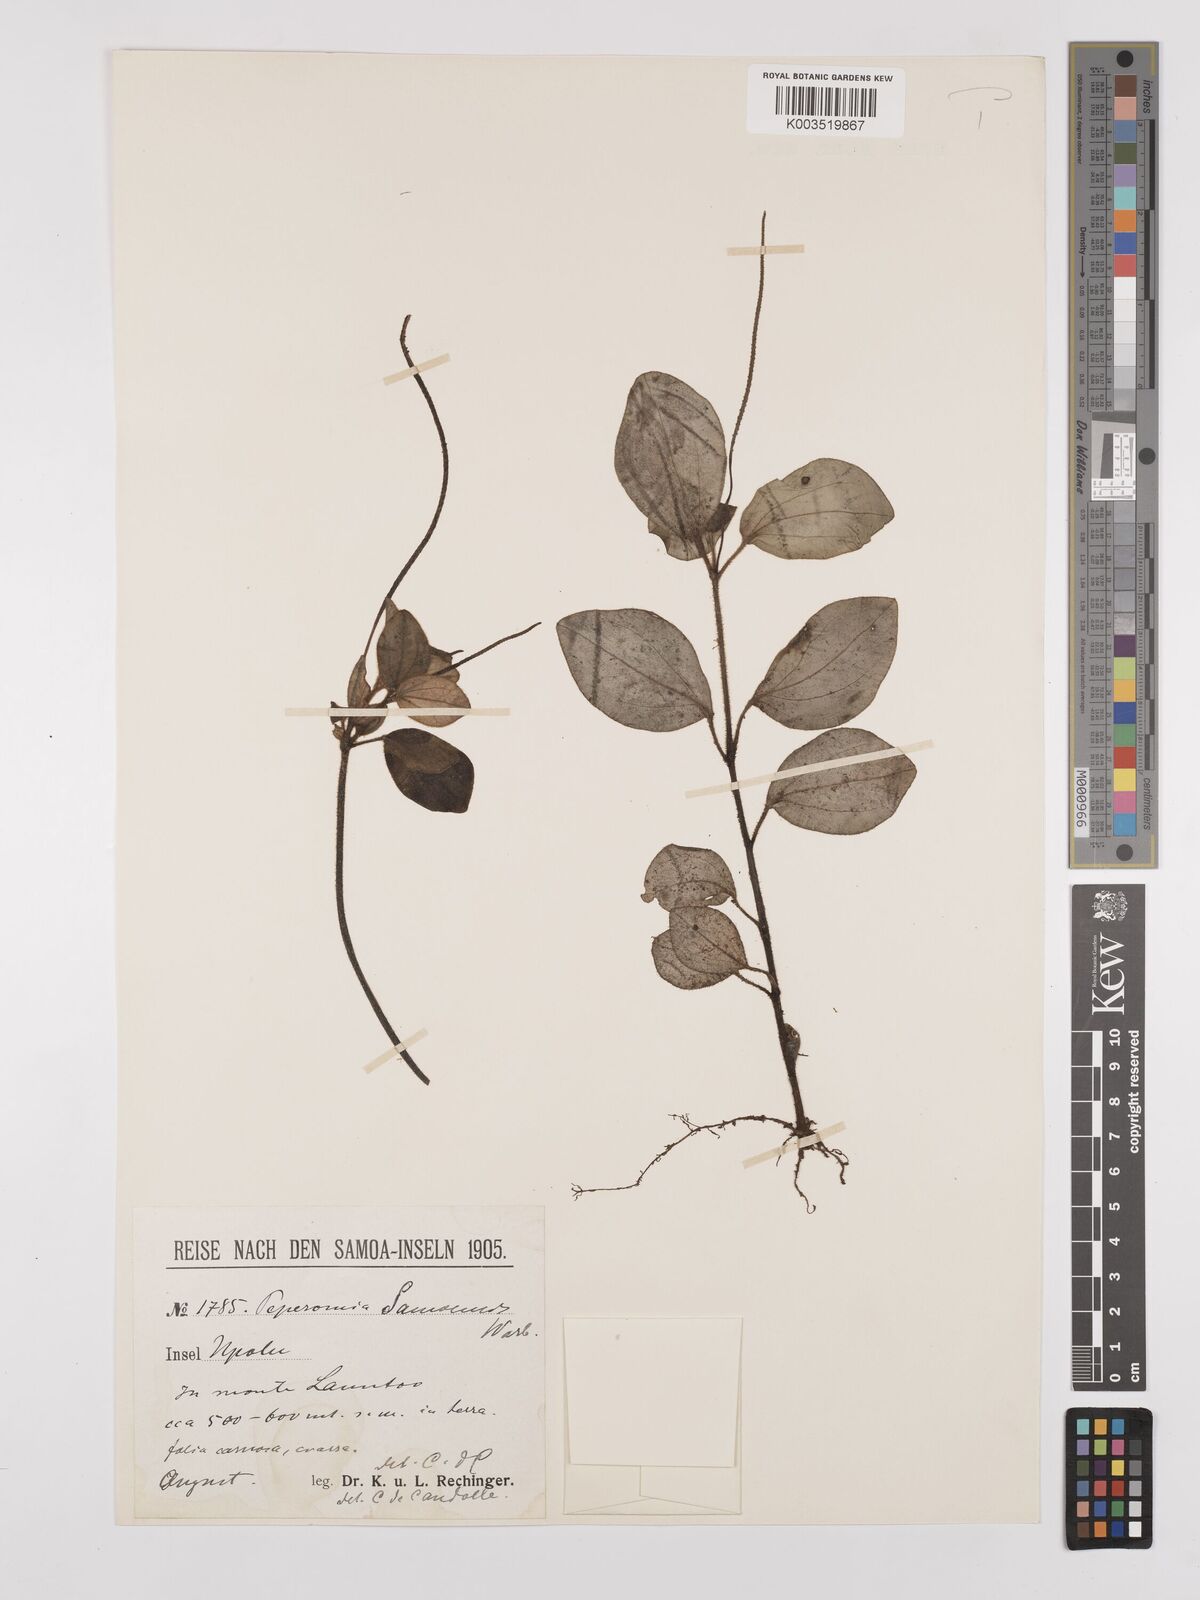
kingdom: Plantae
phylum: Tracheophyta
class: Magnoliopsida
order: Piperales
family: Piperaceae
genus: Peperomia
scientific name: Peperomia samoensis
